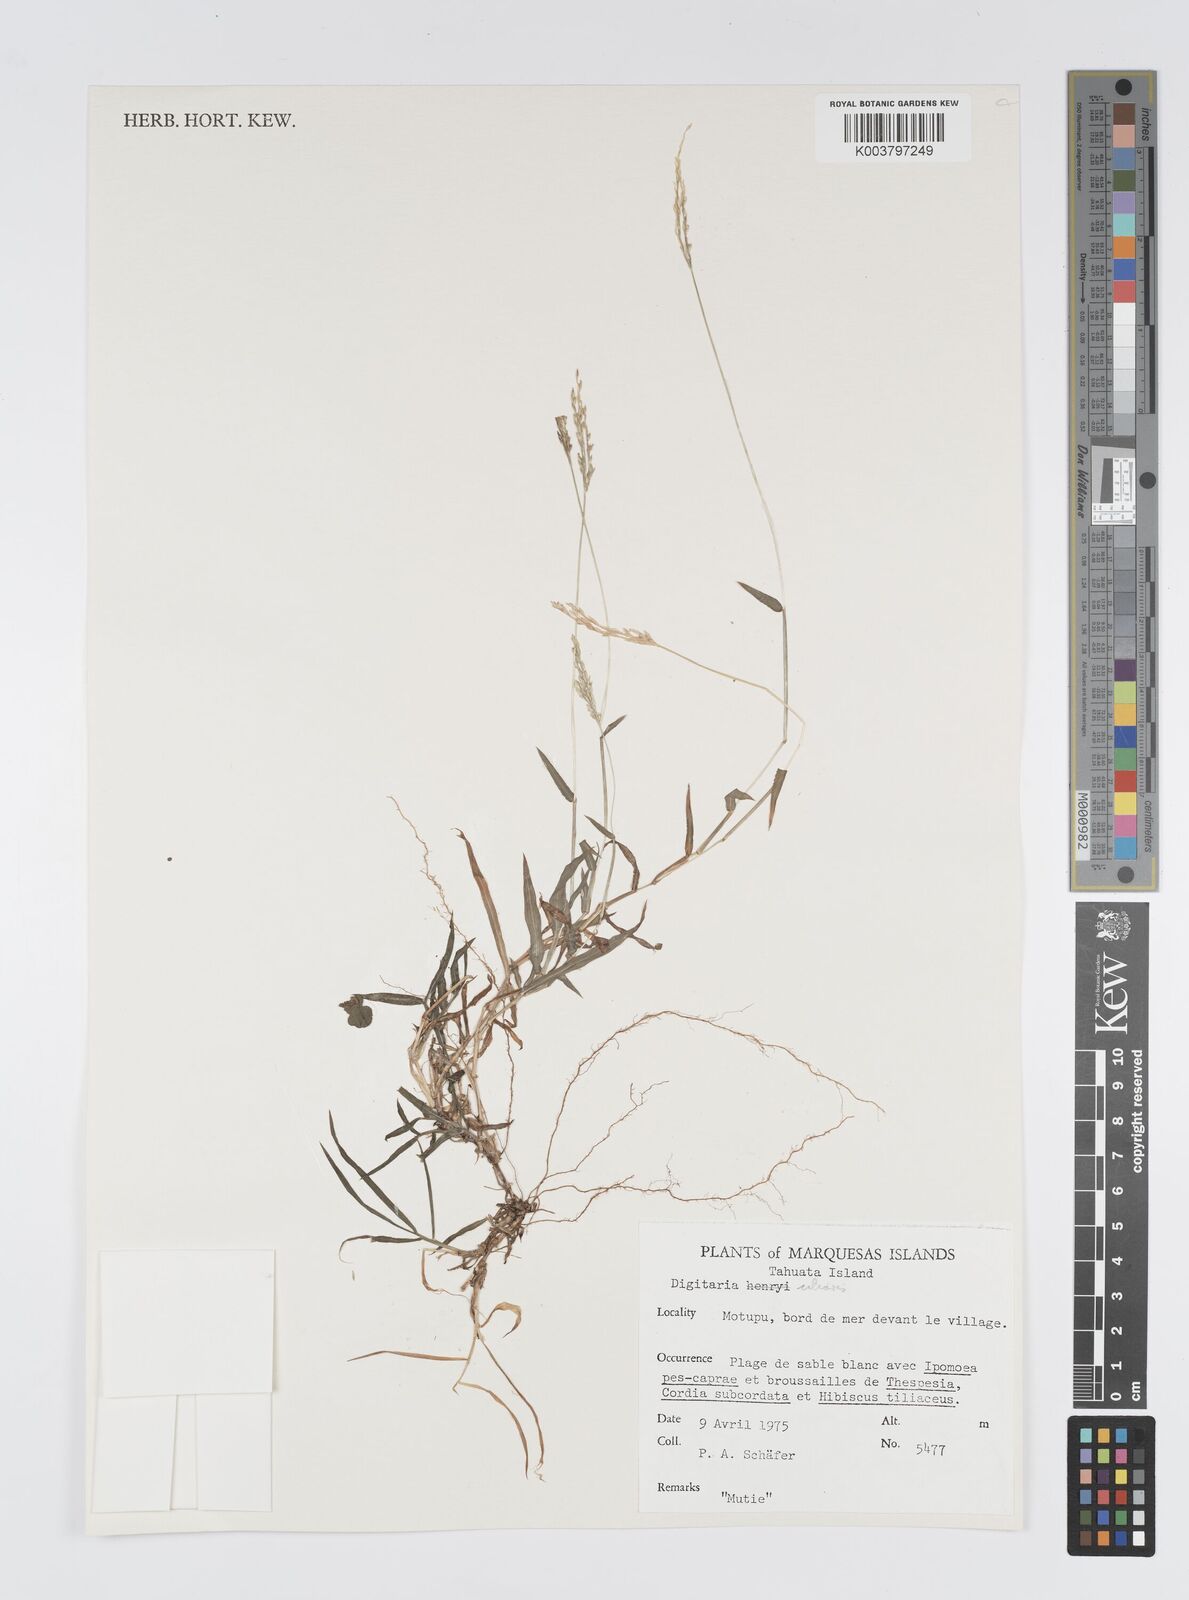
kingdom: Plantae
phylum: Tracheophyta
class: Liliopsida
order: Poales
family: Poaceae
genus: Digitaria
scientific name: Digitaria ciliaris
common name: Tropical finger-grass
